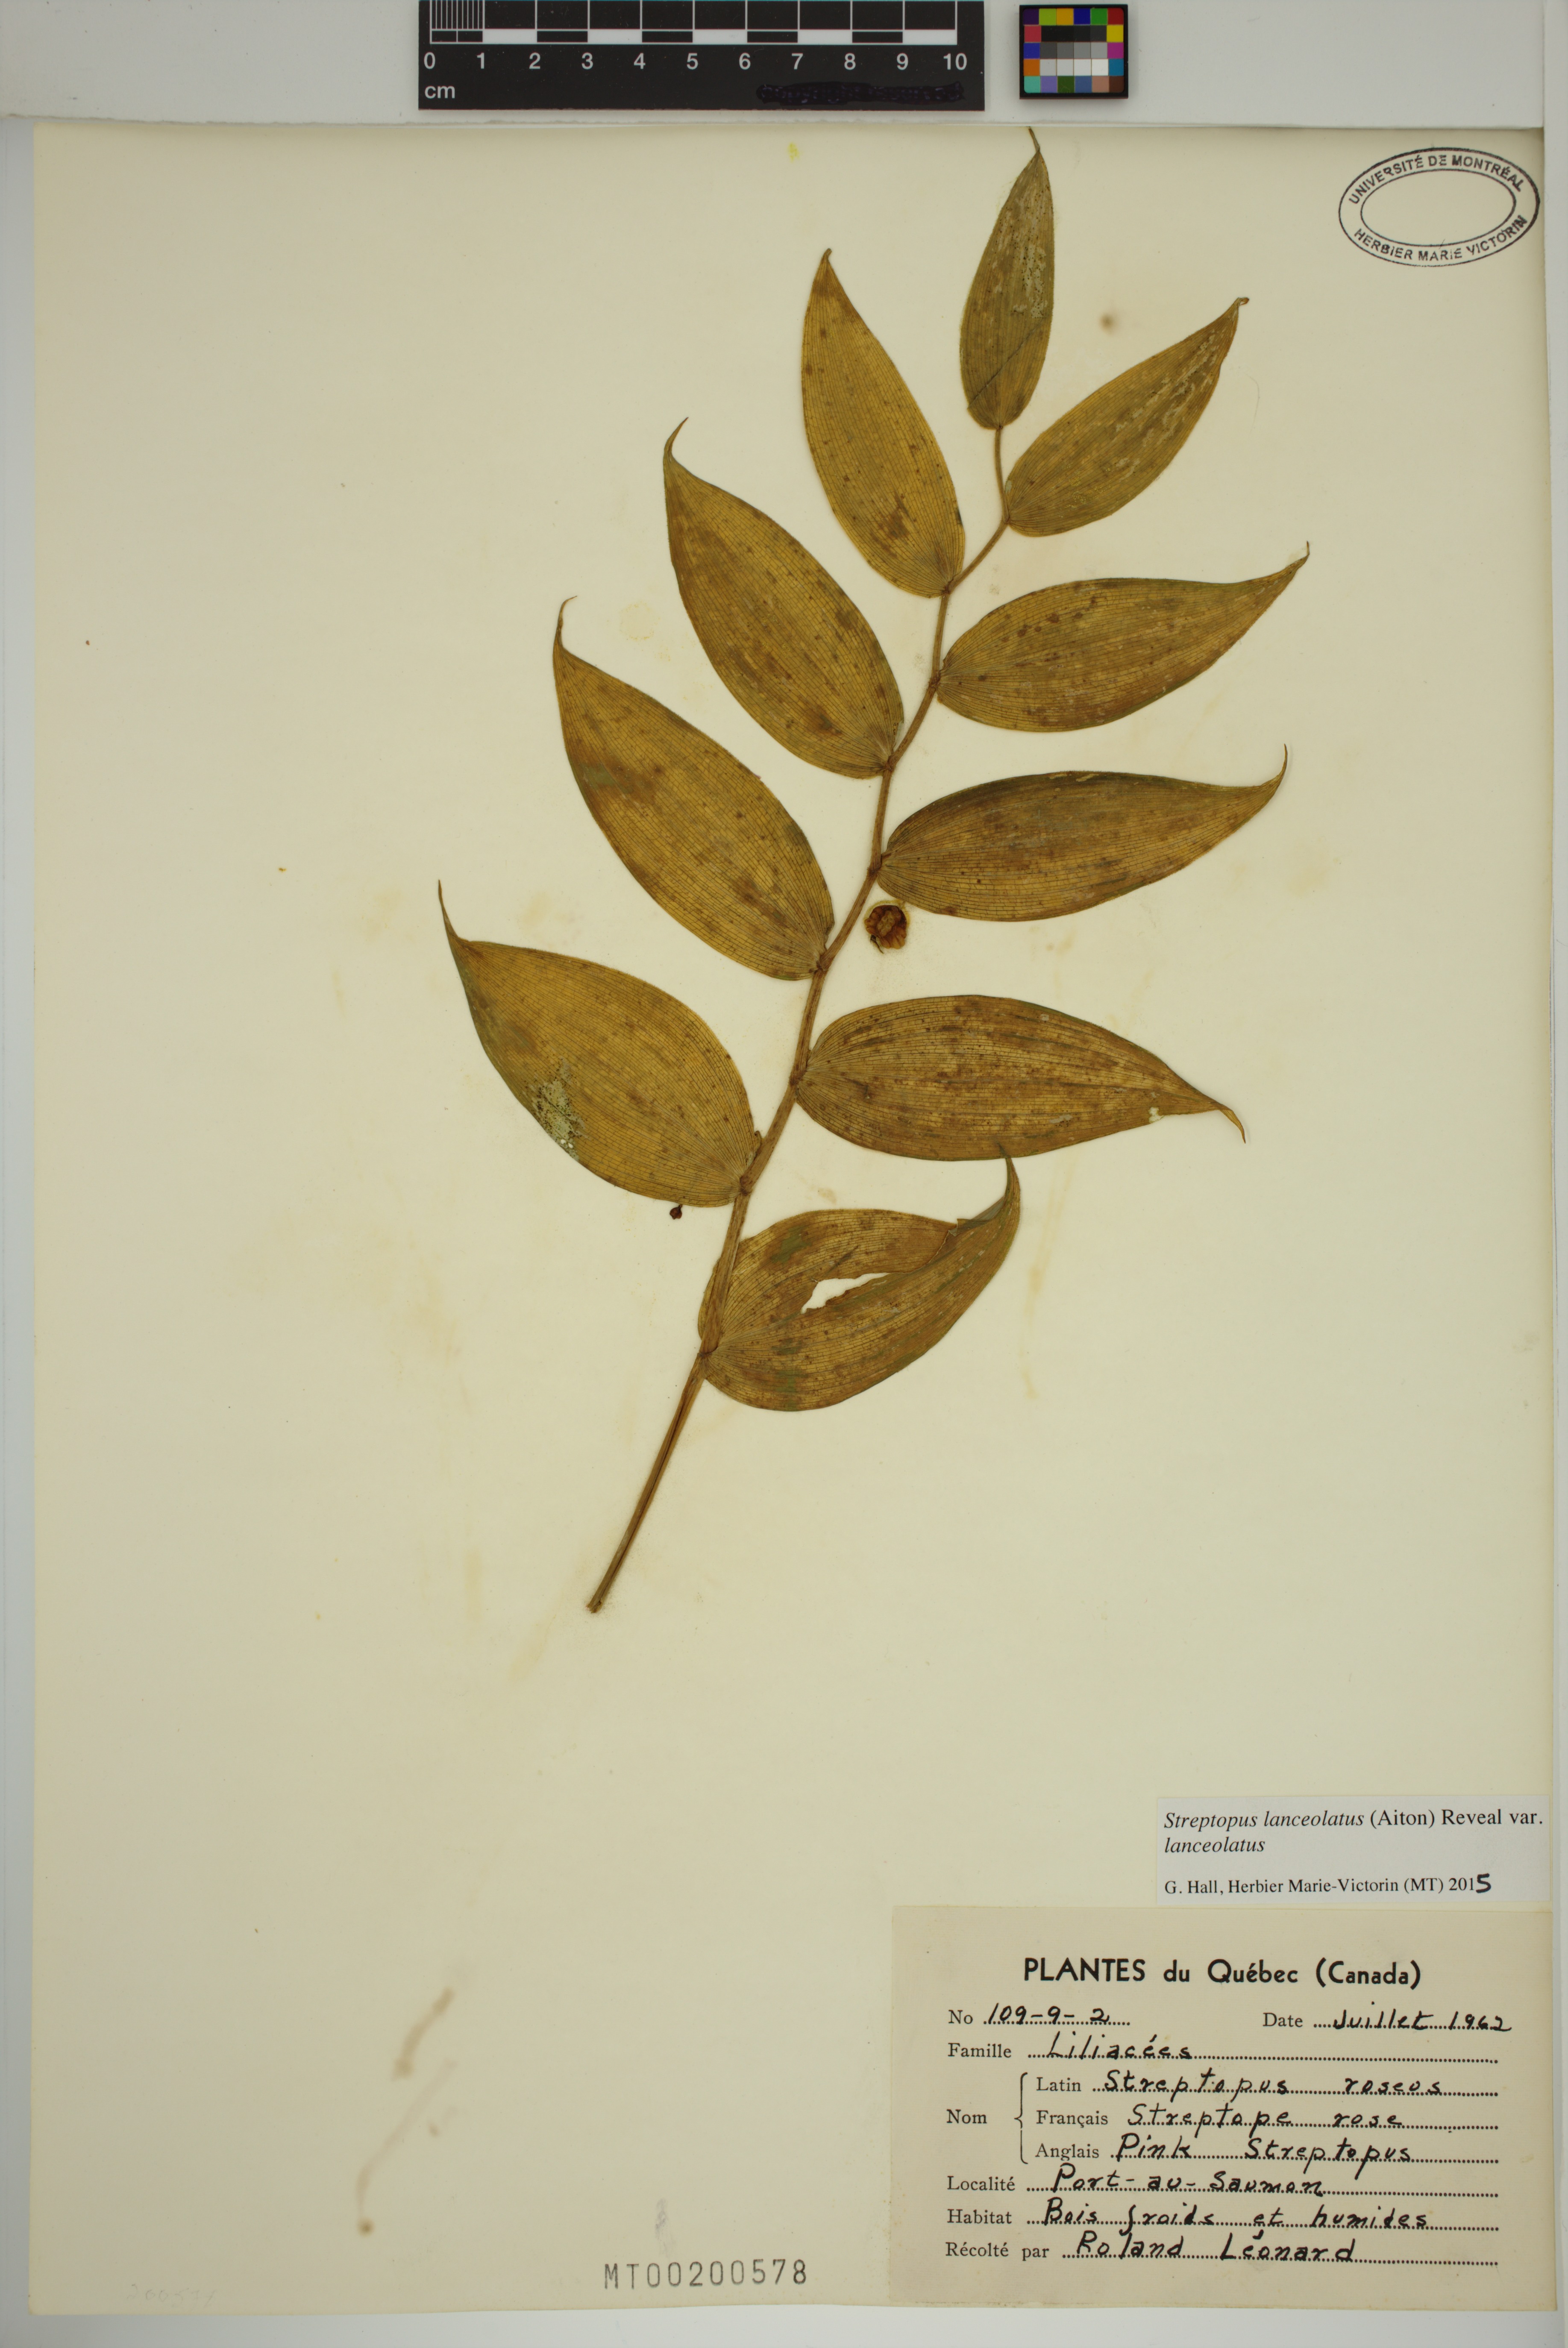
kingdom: Plantae
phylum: Tracheophyta
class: Liliopsida
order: Liliales
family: Liliaceae
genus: Streptopus
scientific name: Streptopus lanceolatus
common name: Rose mandarin
